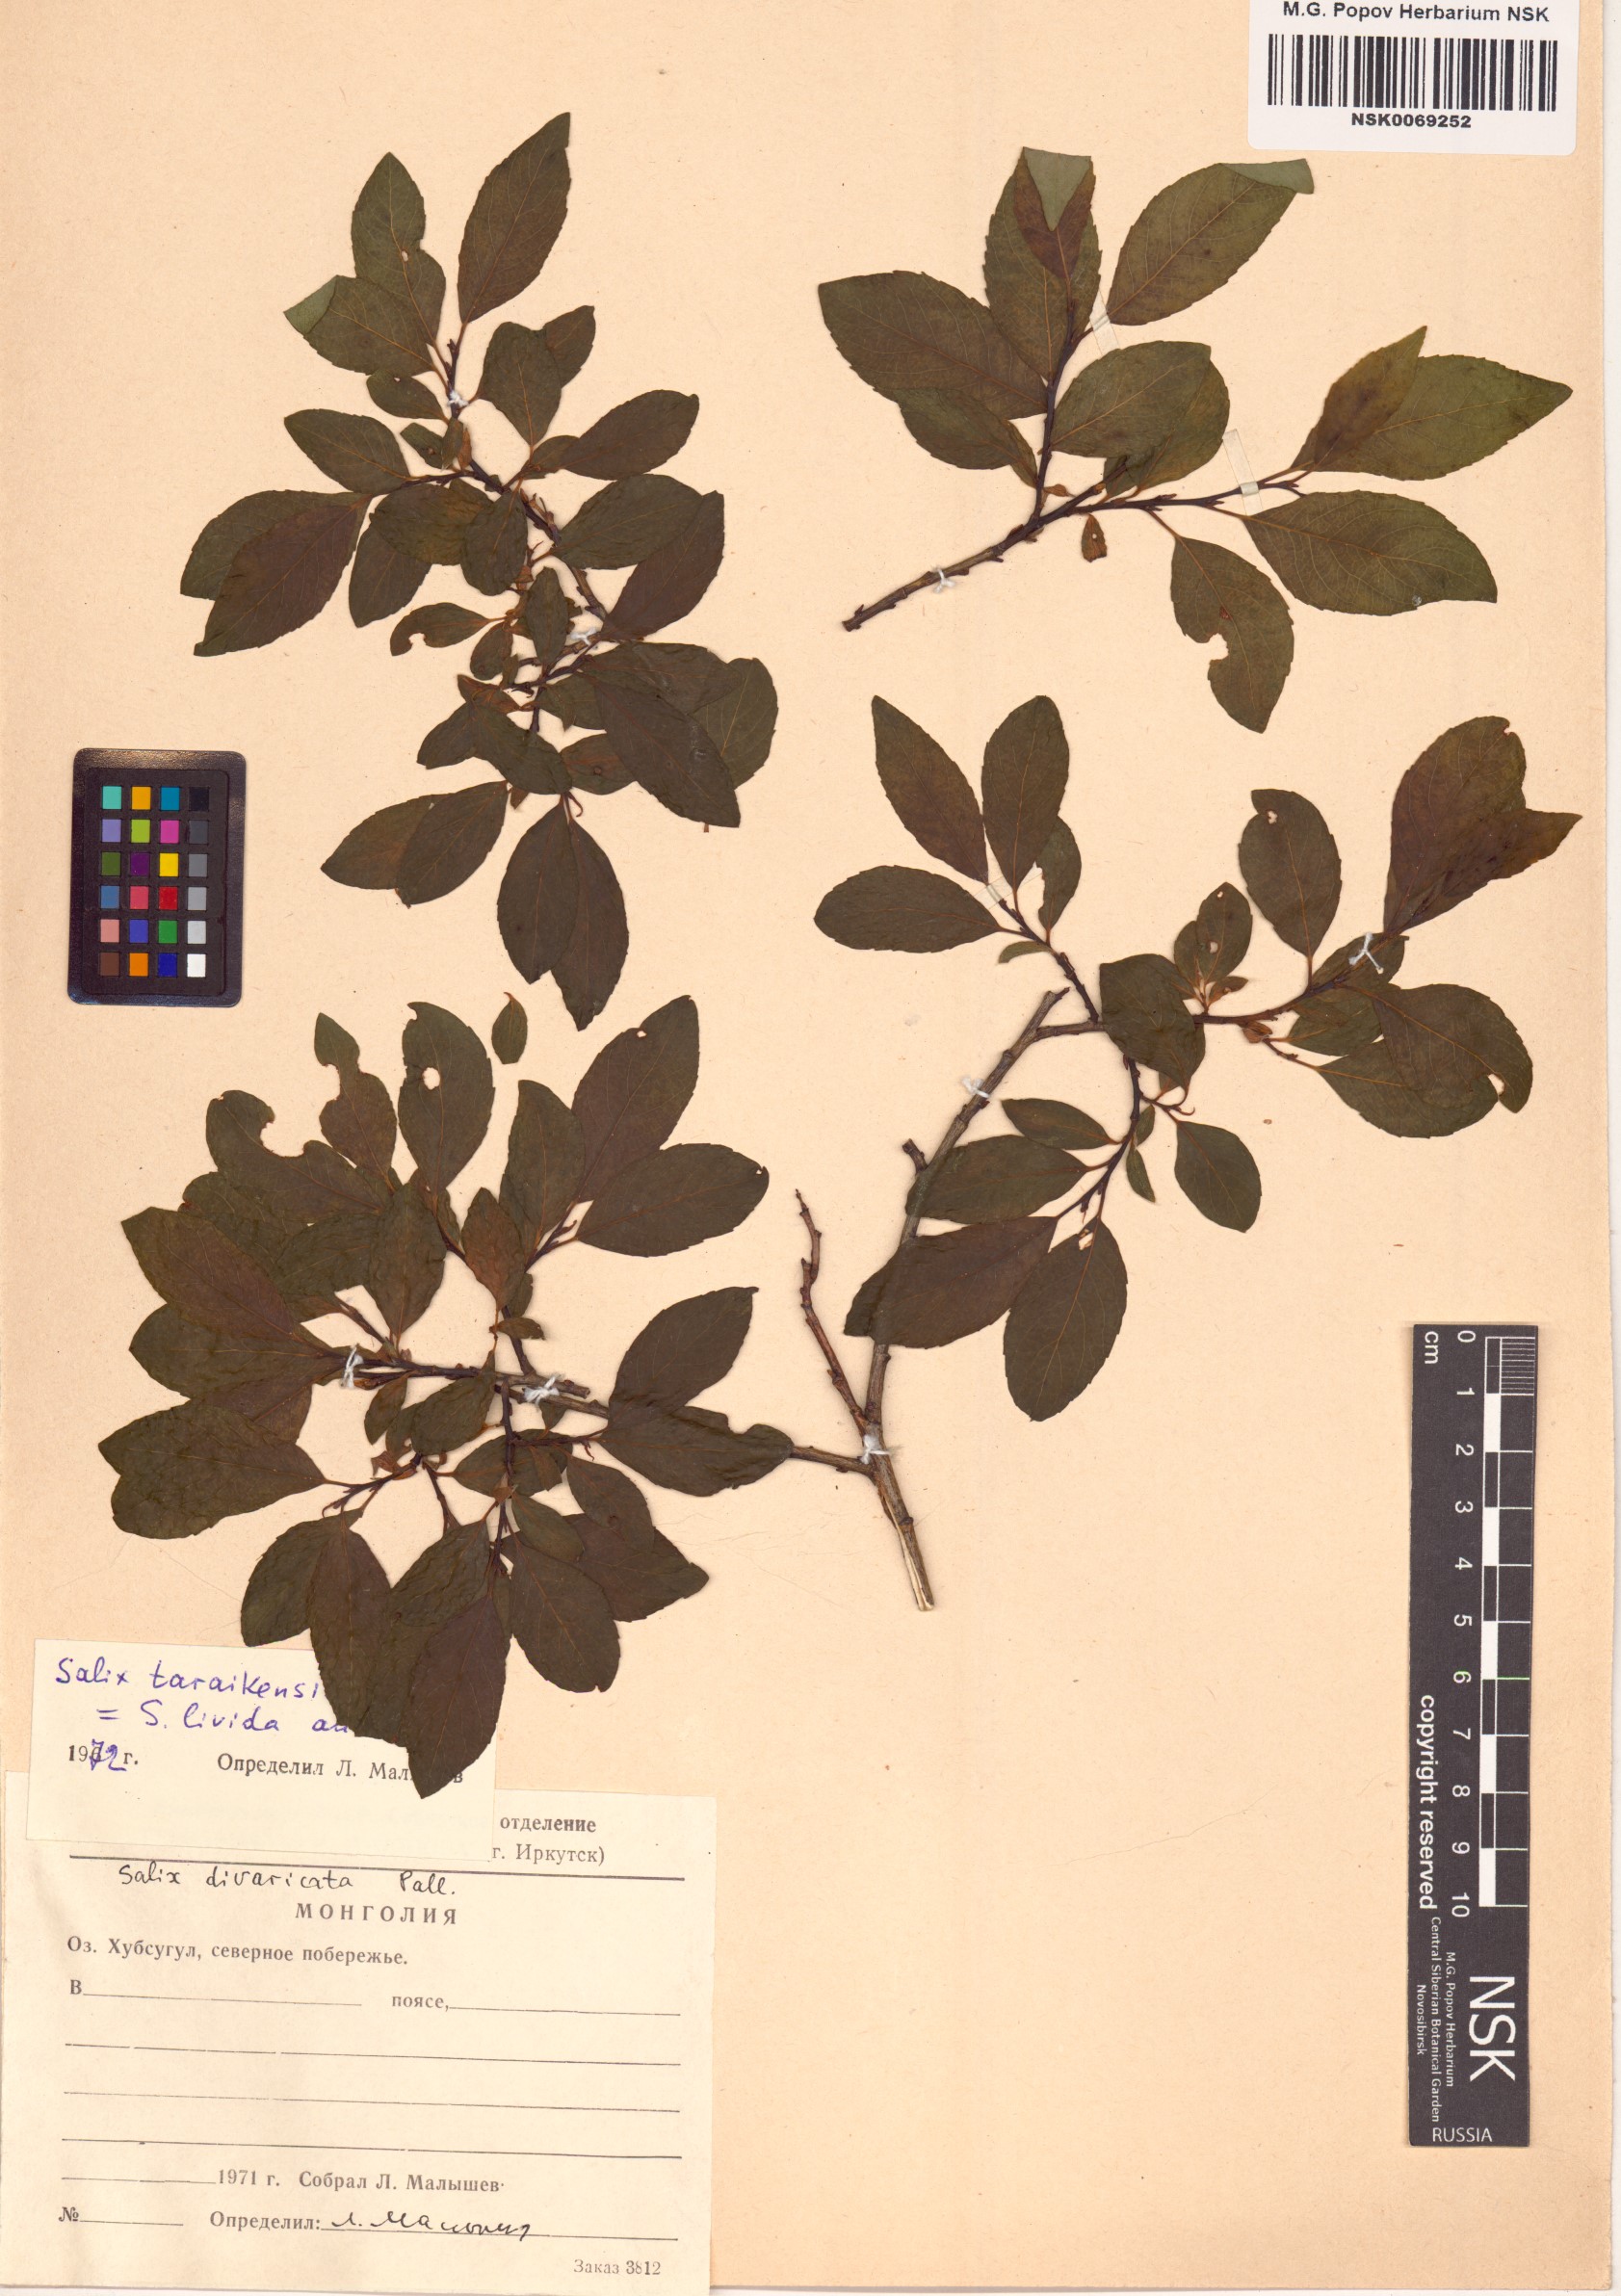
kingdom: Plantae
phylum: Tracheophyta
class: Magnoliopsida
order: Malpighiales
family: Salicaceae
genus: Salix
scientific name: Salix taraikensis
